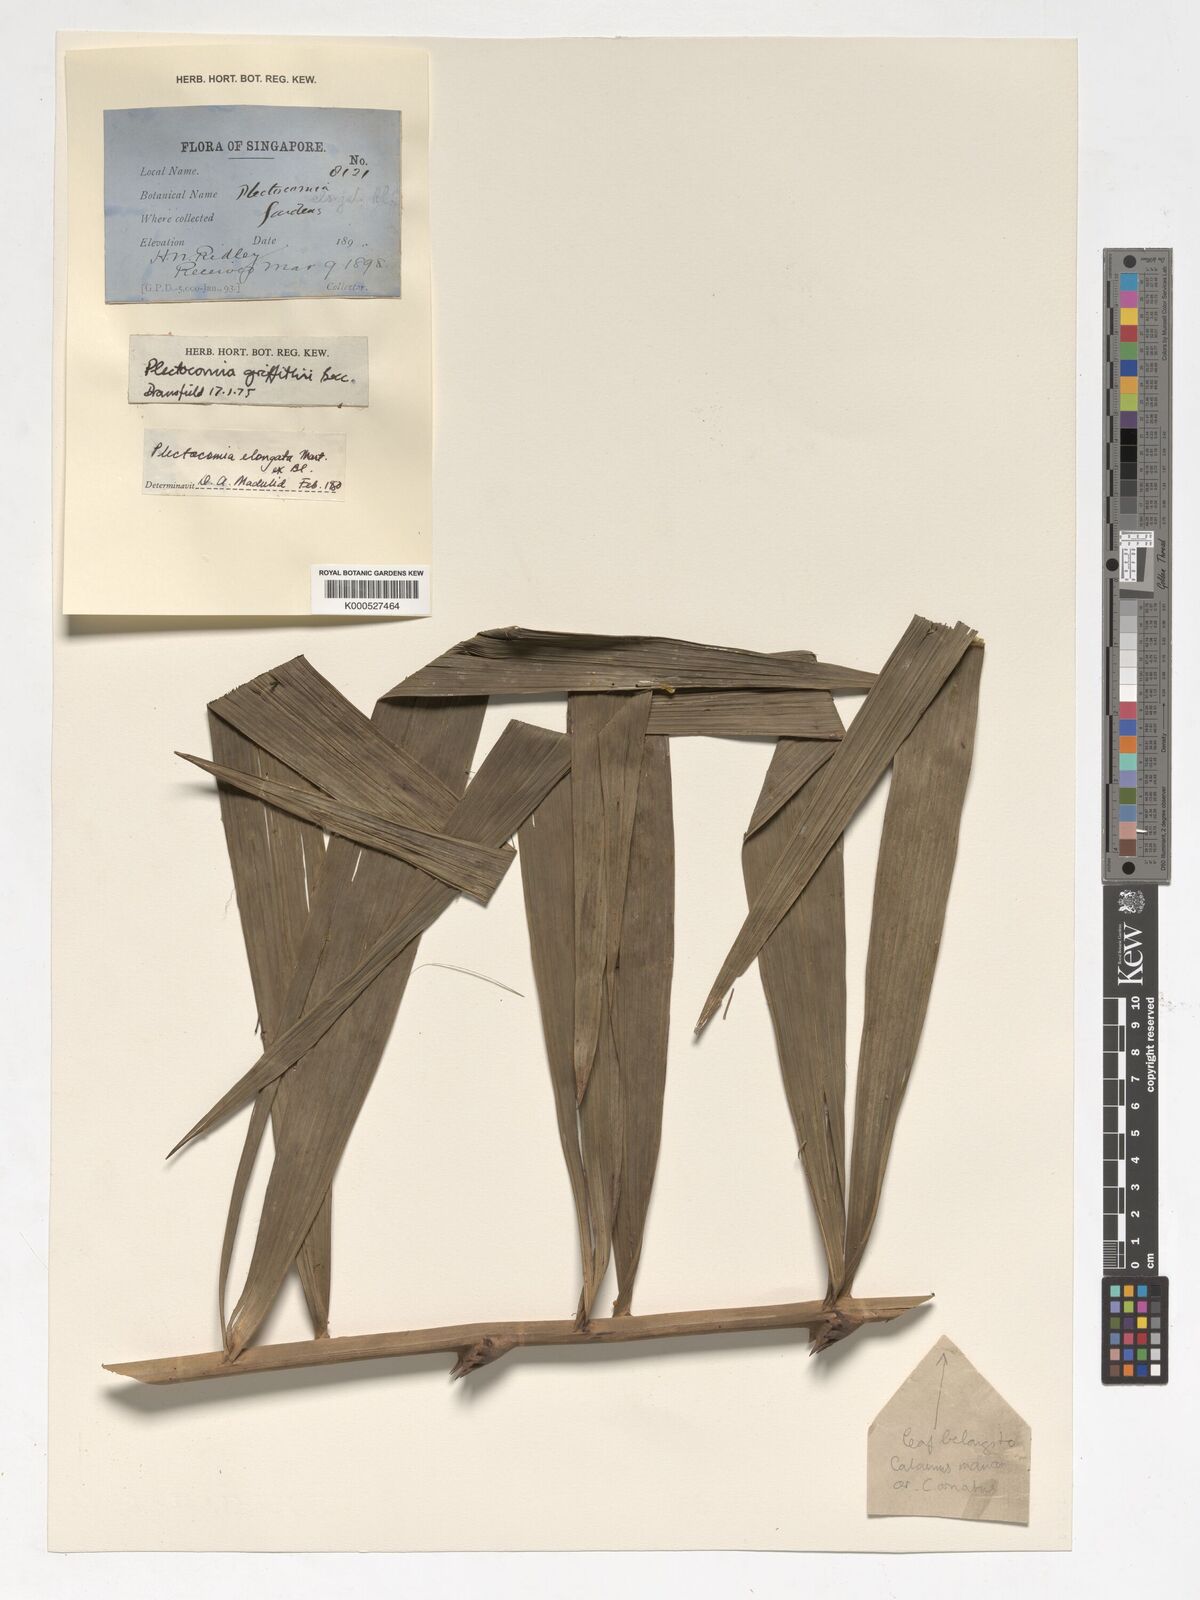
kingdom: Plantae
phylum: Tracheophyta
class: Liliopsida
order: Arecales
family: Arecaceae
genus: Plectocomia
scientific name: Plectocomia elongata
